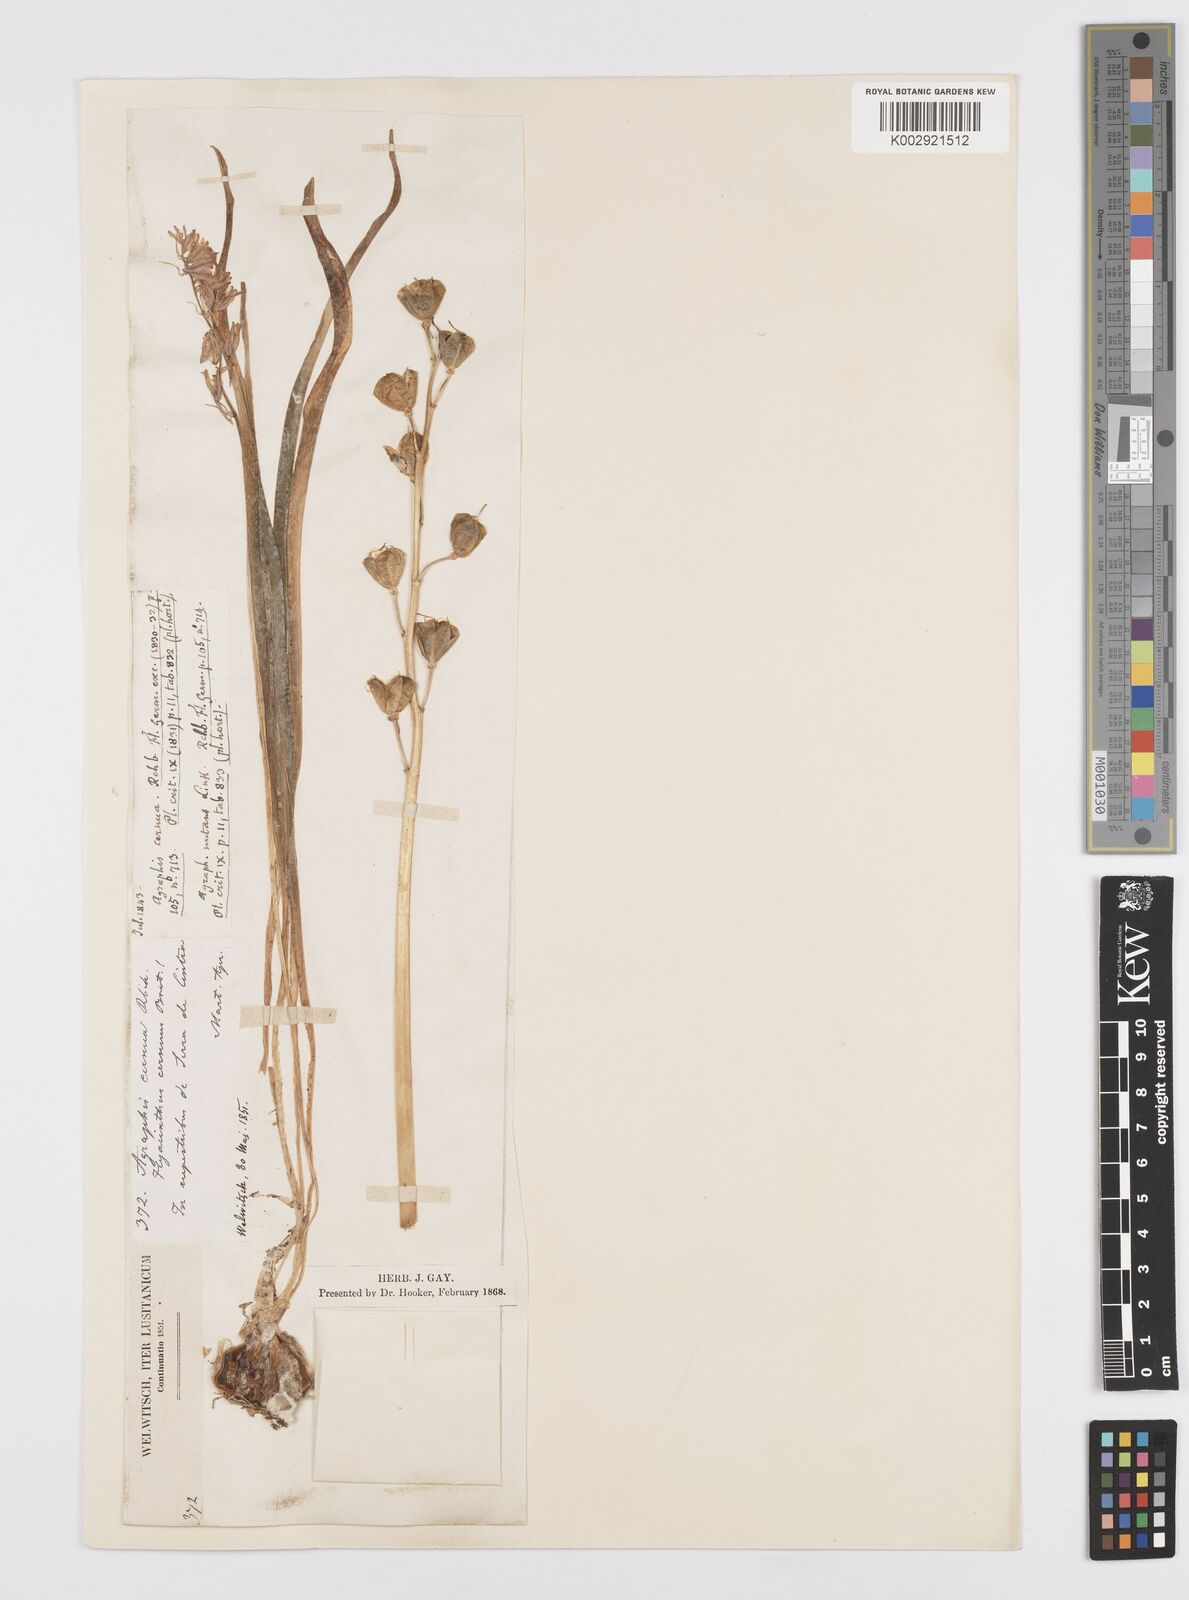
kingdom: Plantae
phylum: Tracheophyta
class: Liliopsida
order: Asparagales
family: Asparagaceae
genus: Hyacinthoides
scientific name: Hyacinthoides hispanica
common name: Spanish bluebell
